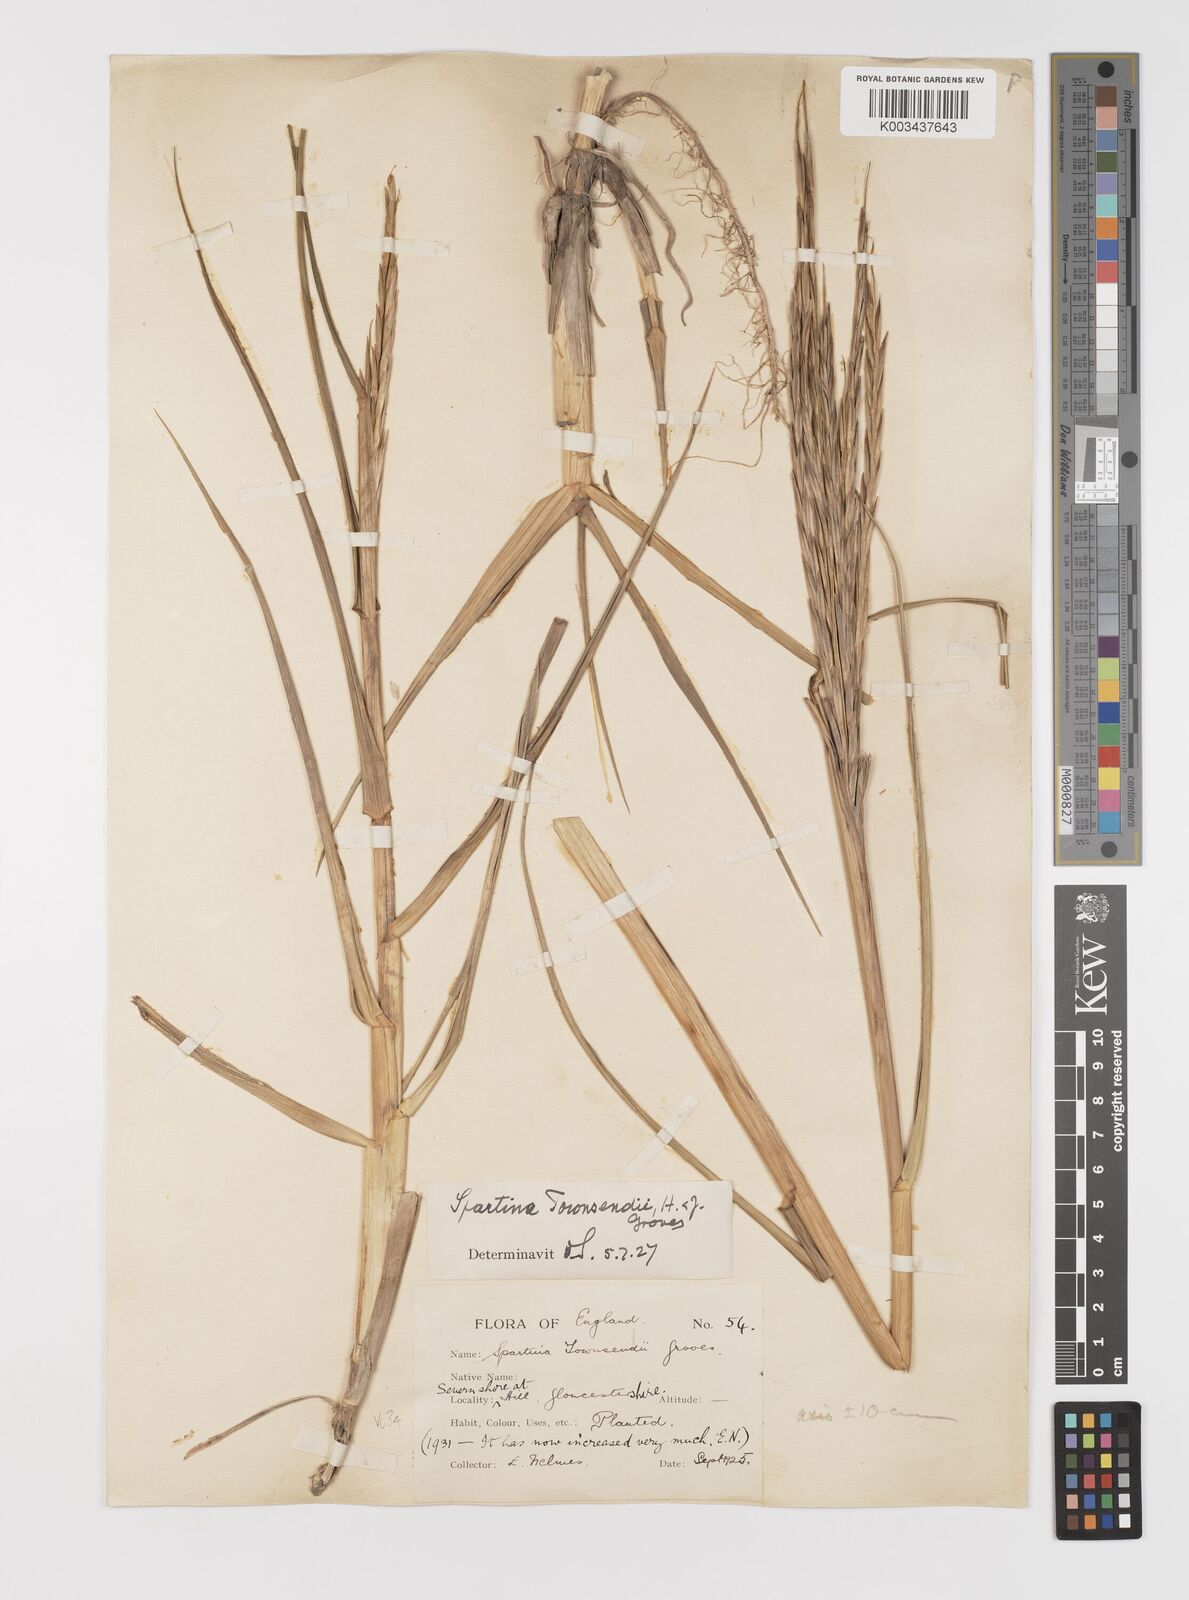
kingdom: Plantae
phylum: Tracheophyta
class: Liliopsida
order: Poales
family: Poaceae
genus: Sporobolus
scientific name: Sporobolus anglicus
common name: English cordgrass
